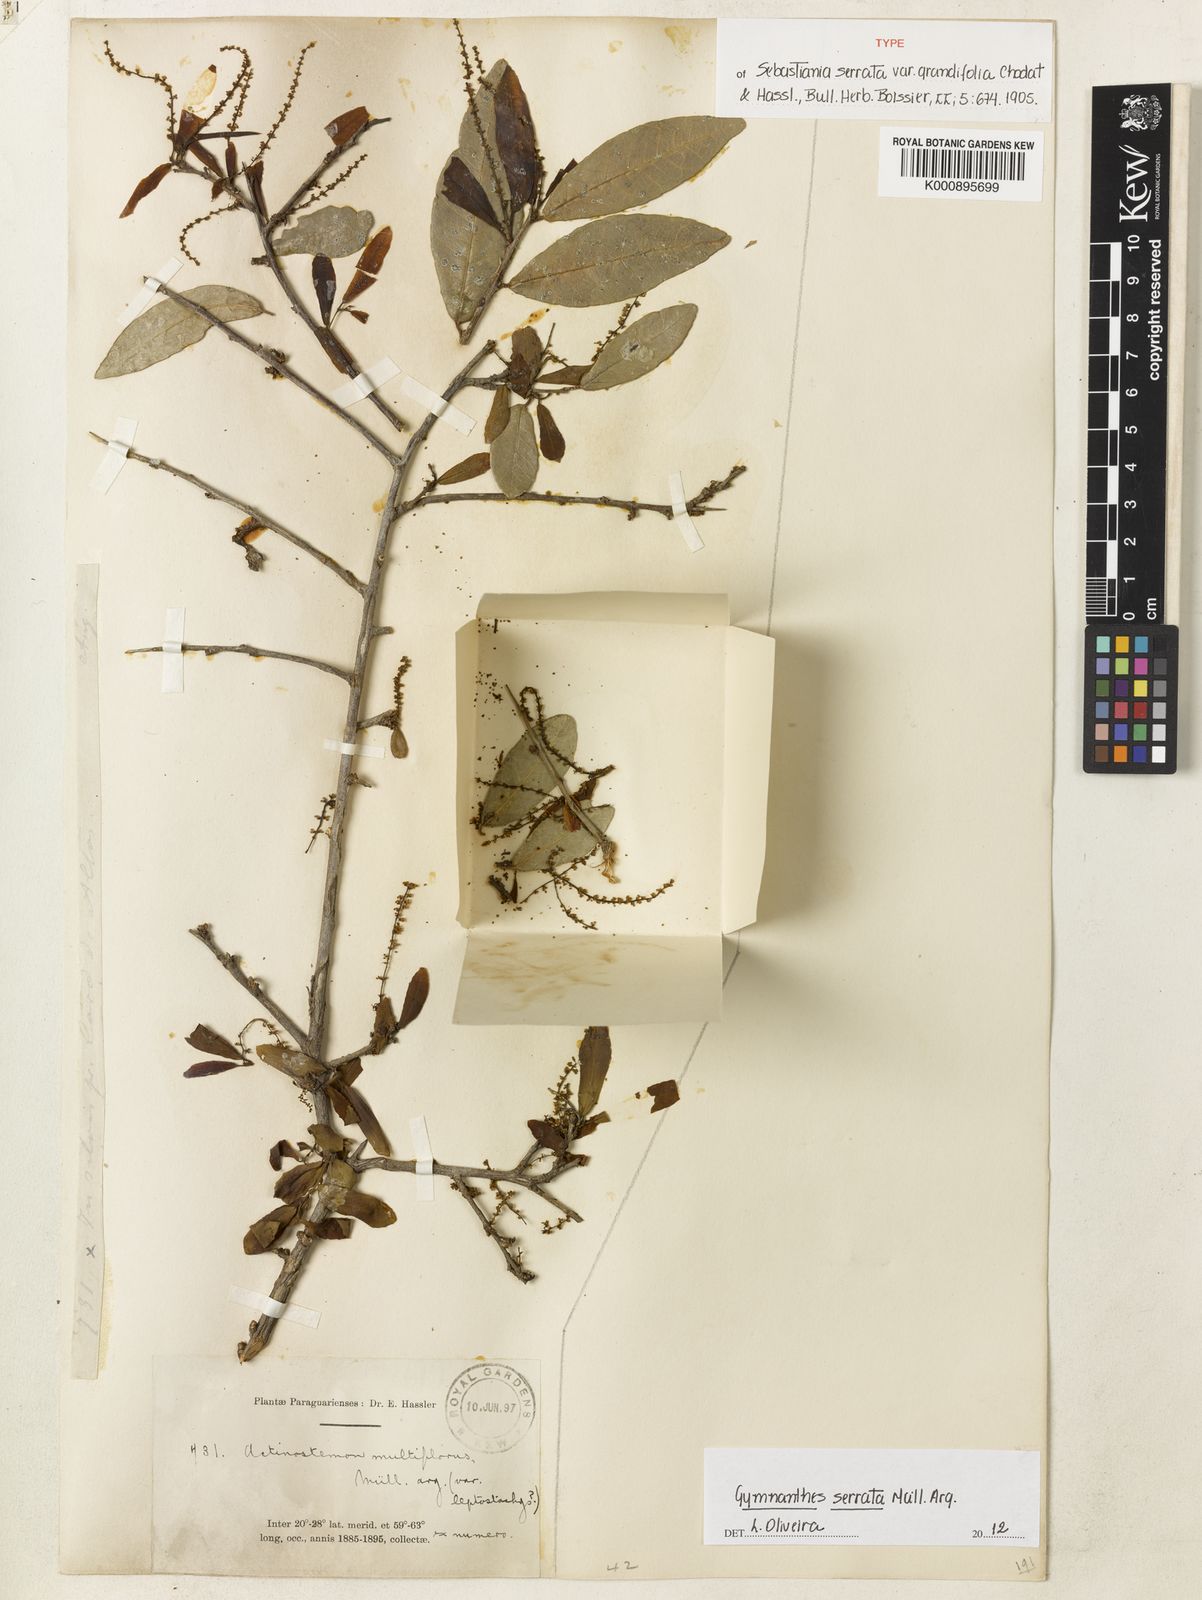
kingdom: Plantae
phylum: Tracheophyta
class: Magnoliopsida
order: Malpighiales
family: Euphorbiaceae
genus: Gymnanthes
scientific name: Gymnanthes
